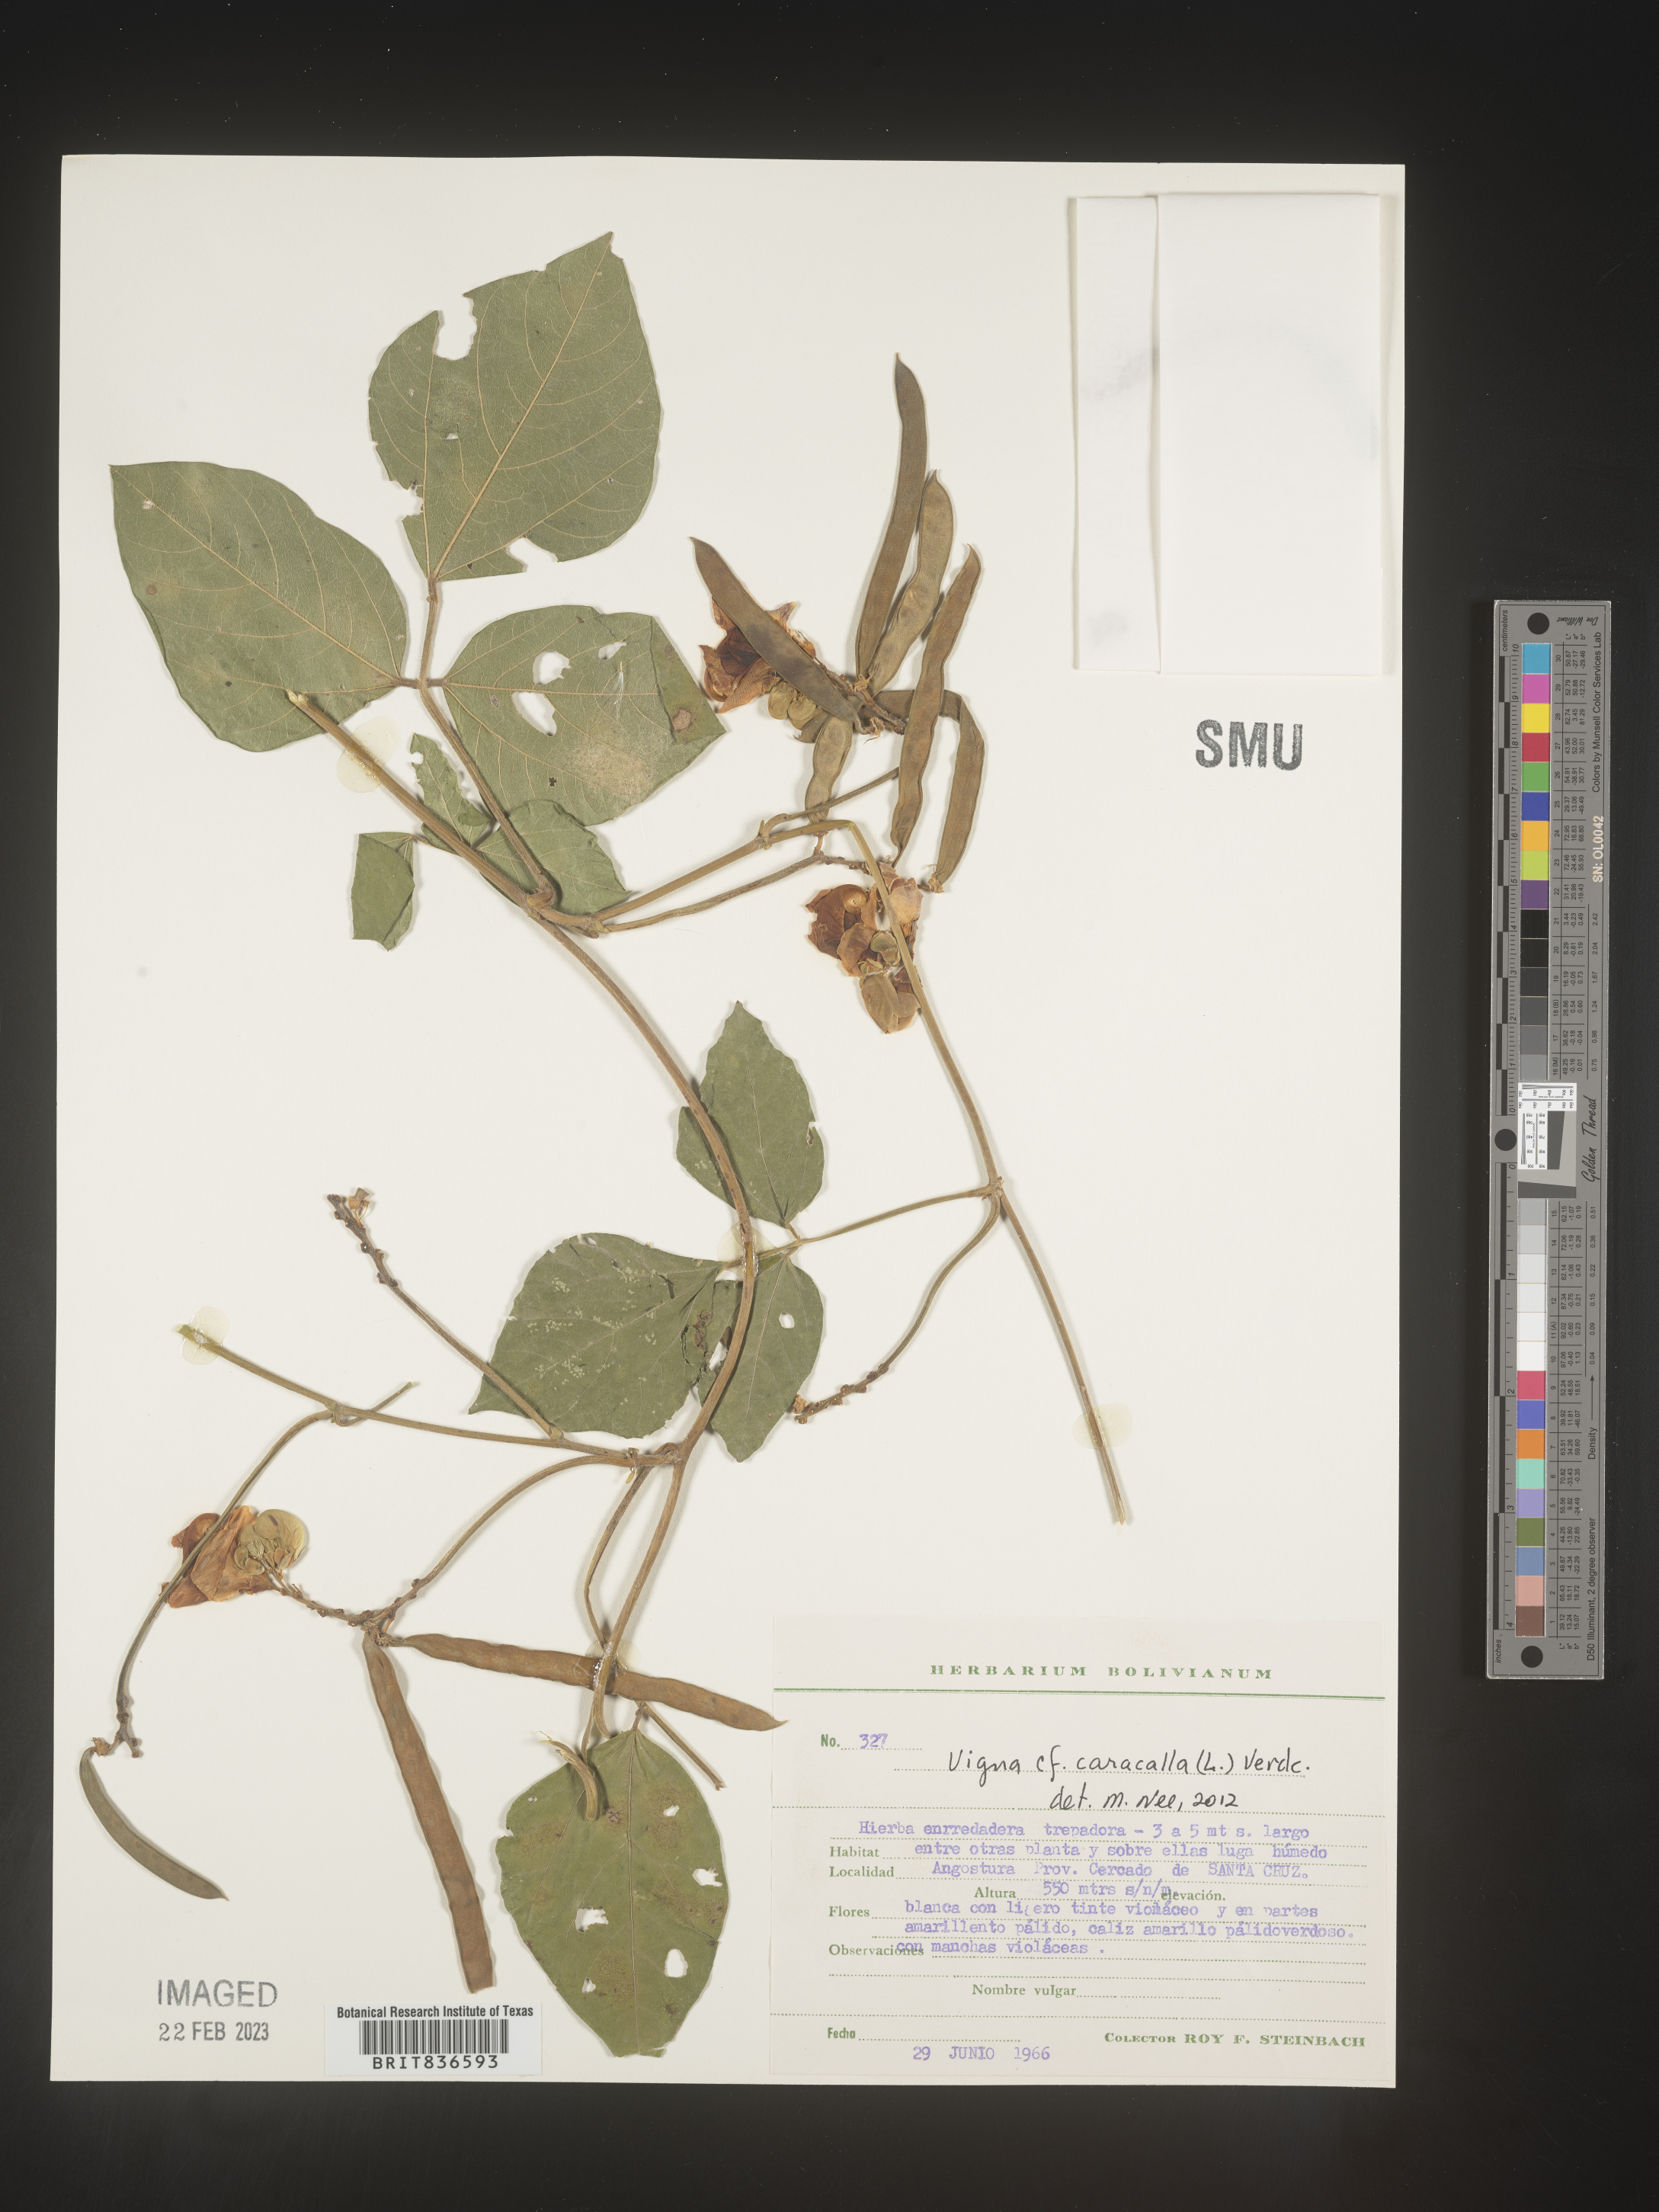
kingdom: Plantae
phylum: Tracheophyta
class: Magnoliopsida
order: Fabales
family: Fabaceae
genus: Vigna
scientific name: Vigna
